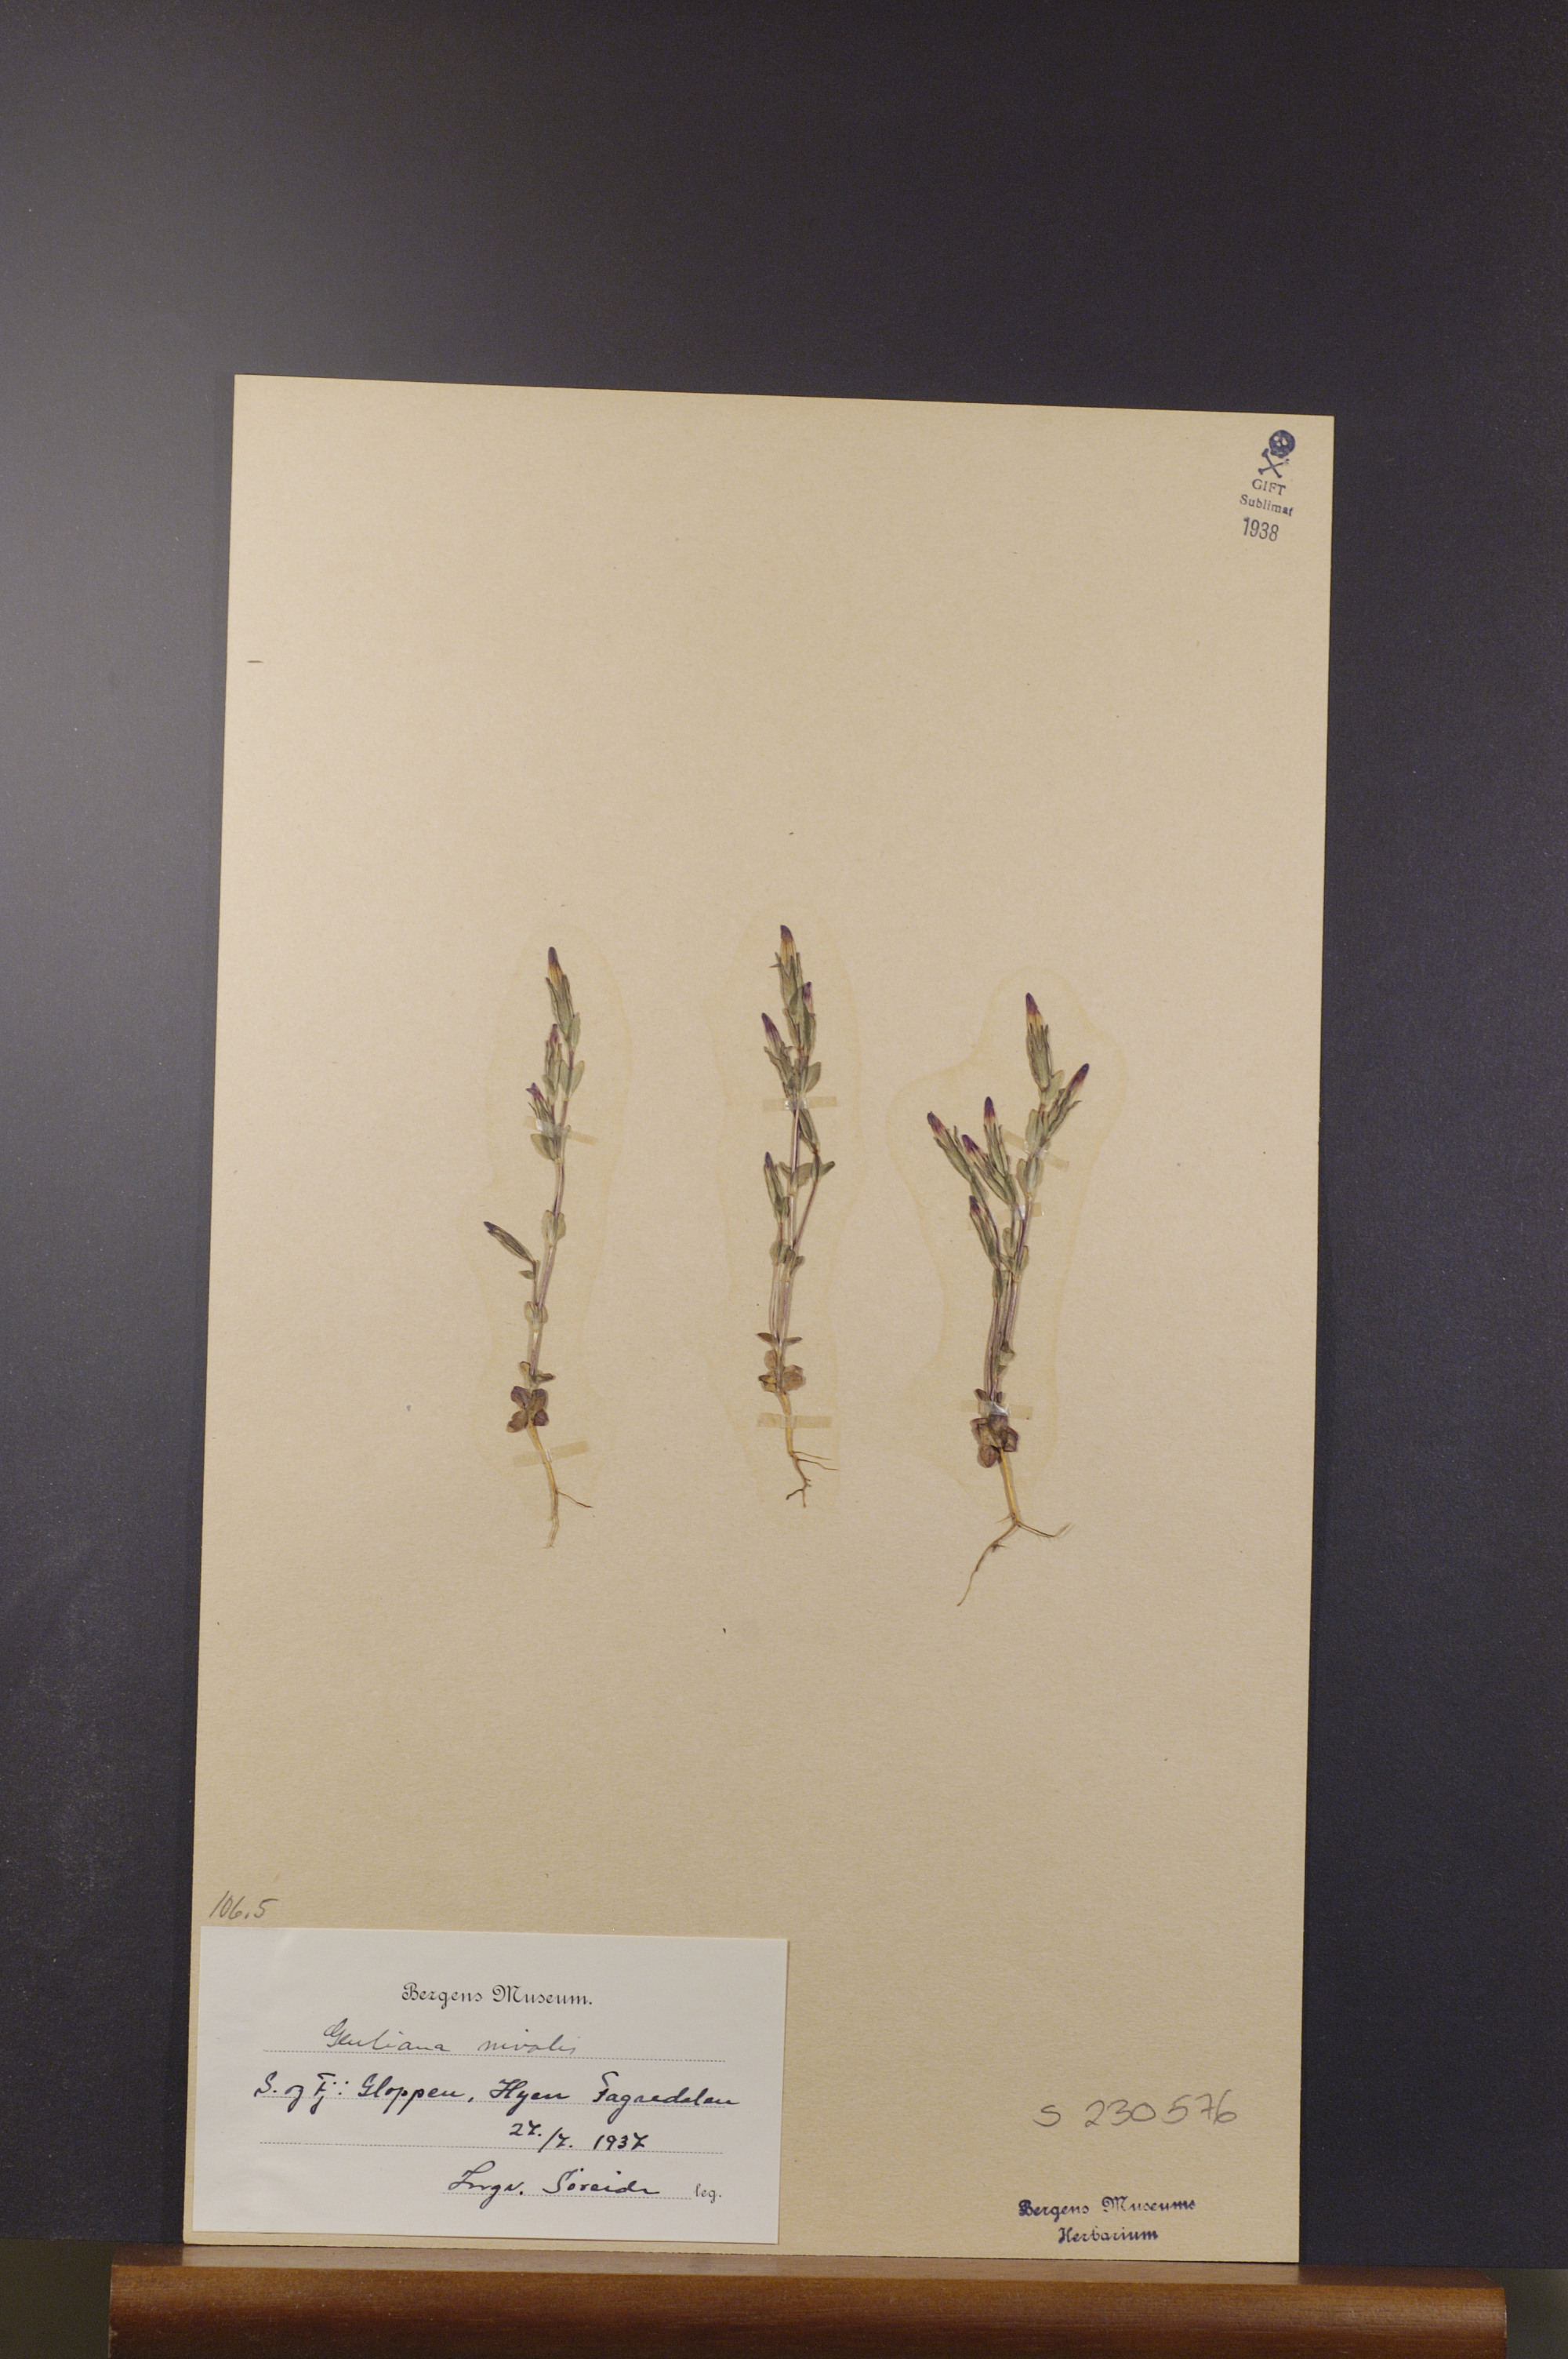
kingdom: Plantae
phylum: Tracheophyta
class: Magnoliopsida
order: Gentianales
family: Gentianaceae
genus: Gentiana
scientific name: Gentiana nivalis
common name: Alpine gentian
